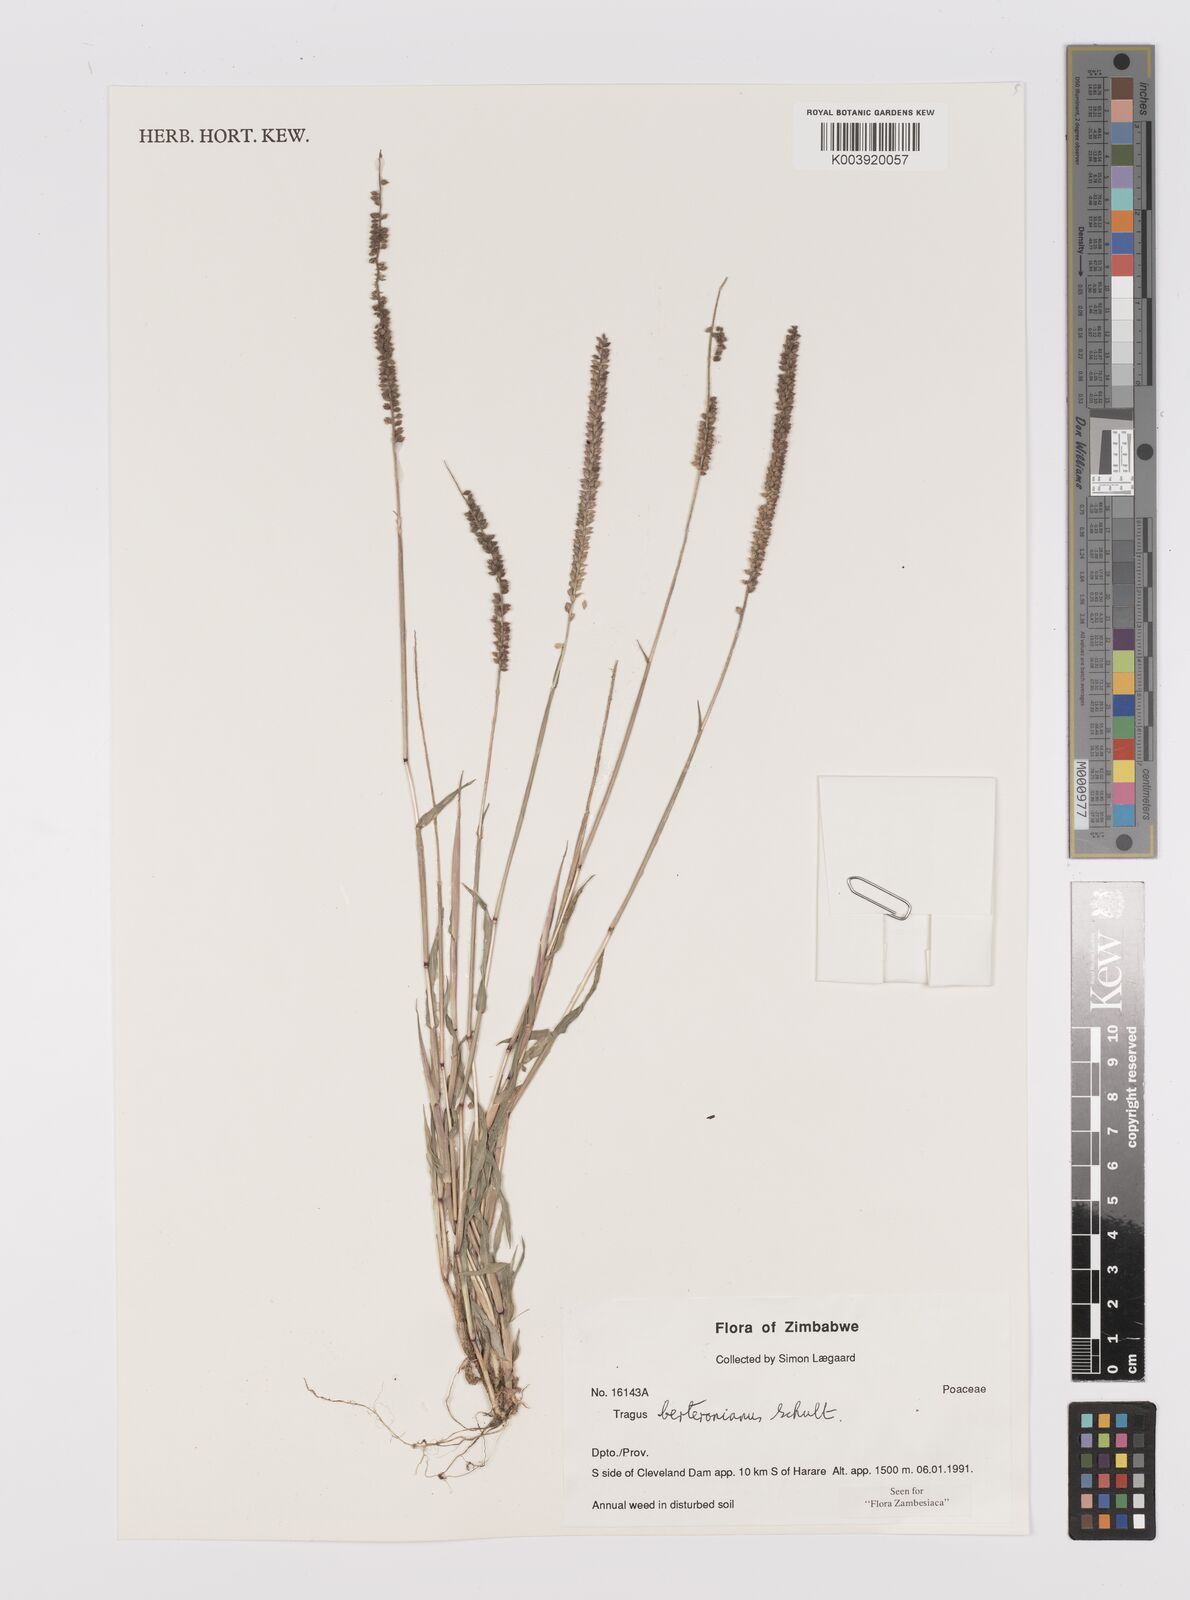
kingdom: Plantae
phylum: Tracheophyta
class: Liliopsida
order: Poales
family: Poaceae
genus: Tragus
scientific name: Tragus berteronianus
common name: African bur-grass
